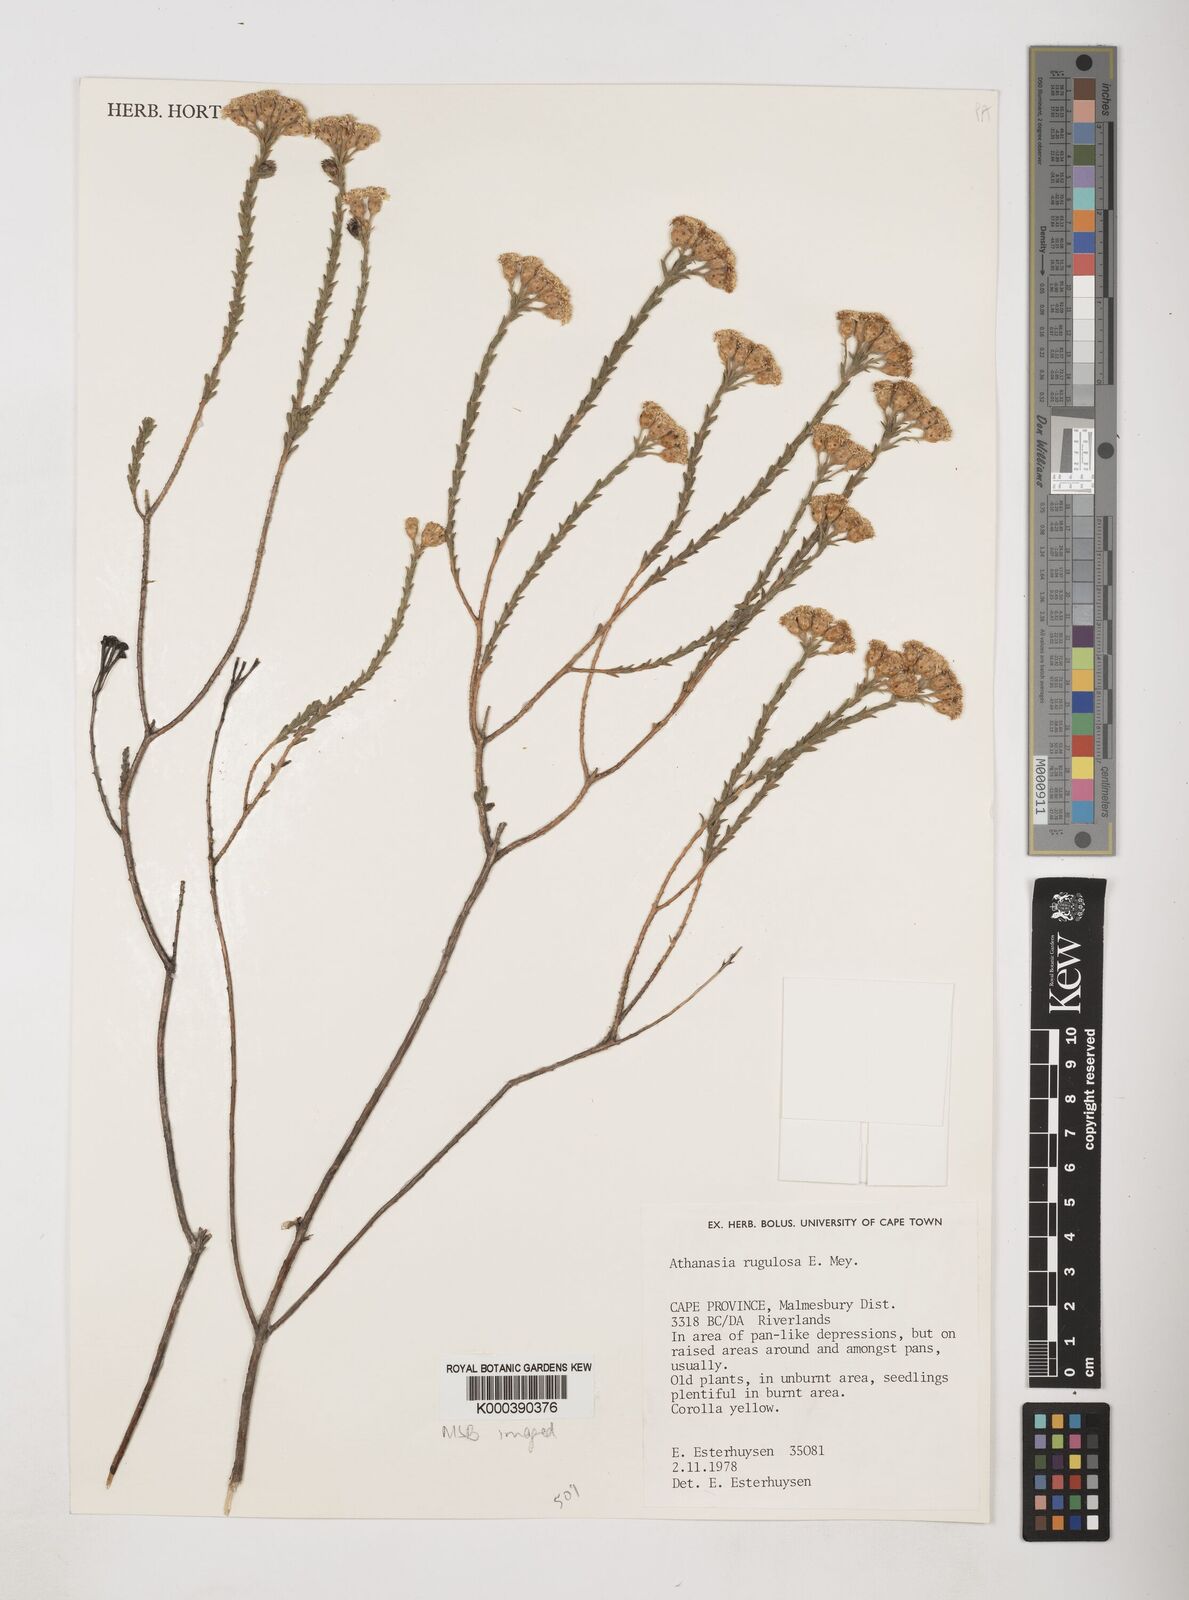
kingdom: Plantae
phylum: Tracheophyta
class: Magnoliopsida
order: Asterales
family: Asteraceae
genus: Athanasia
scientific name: Athanasia rugulosa
